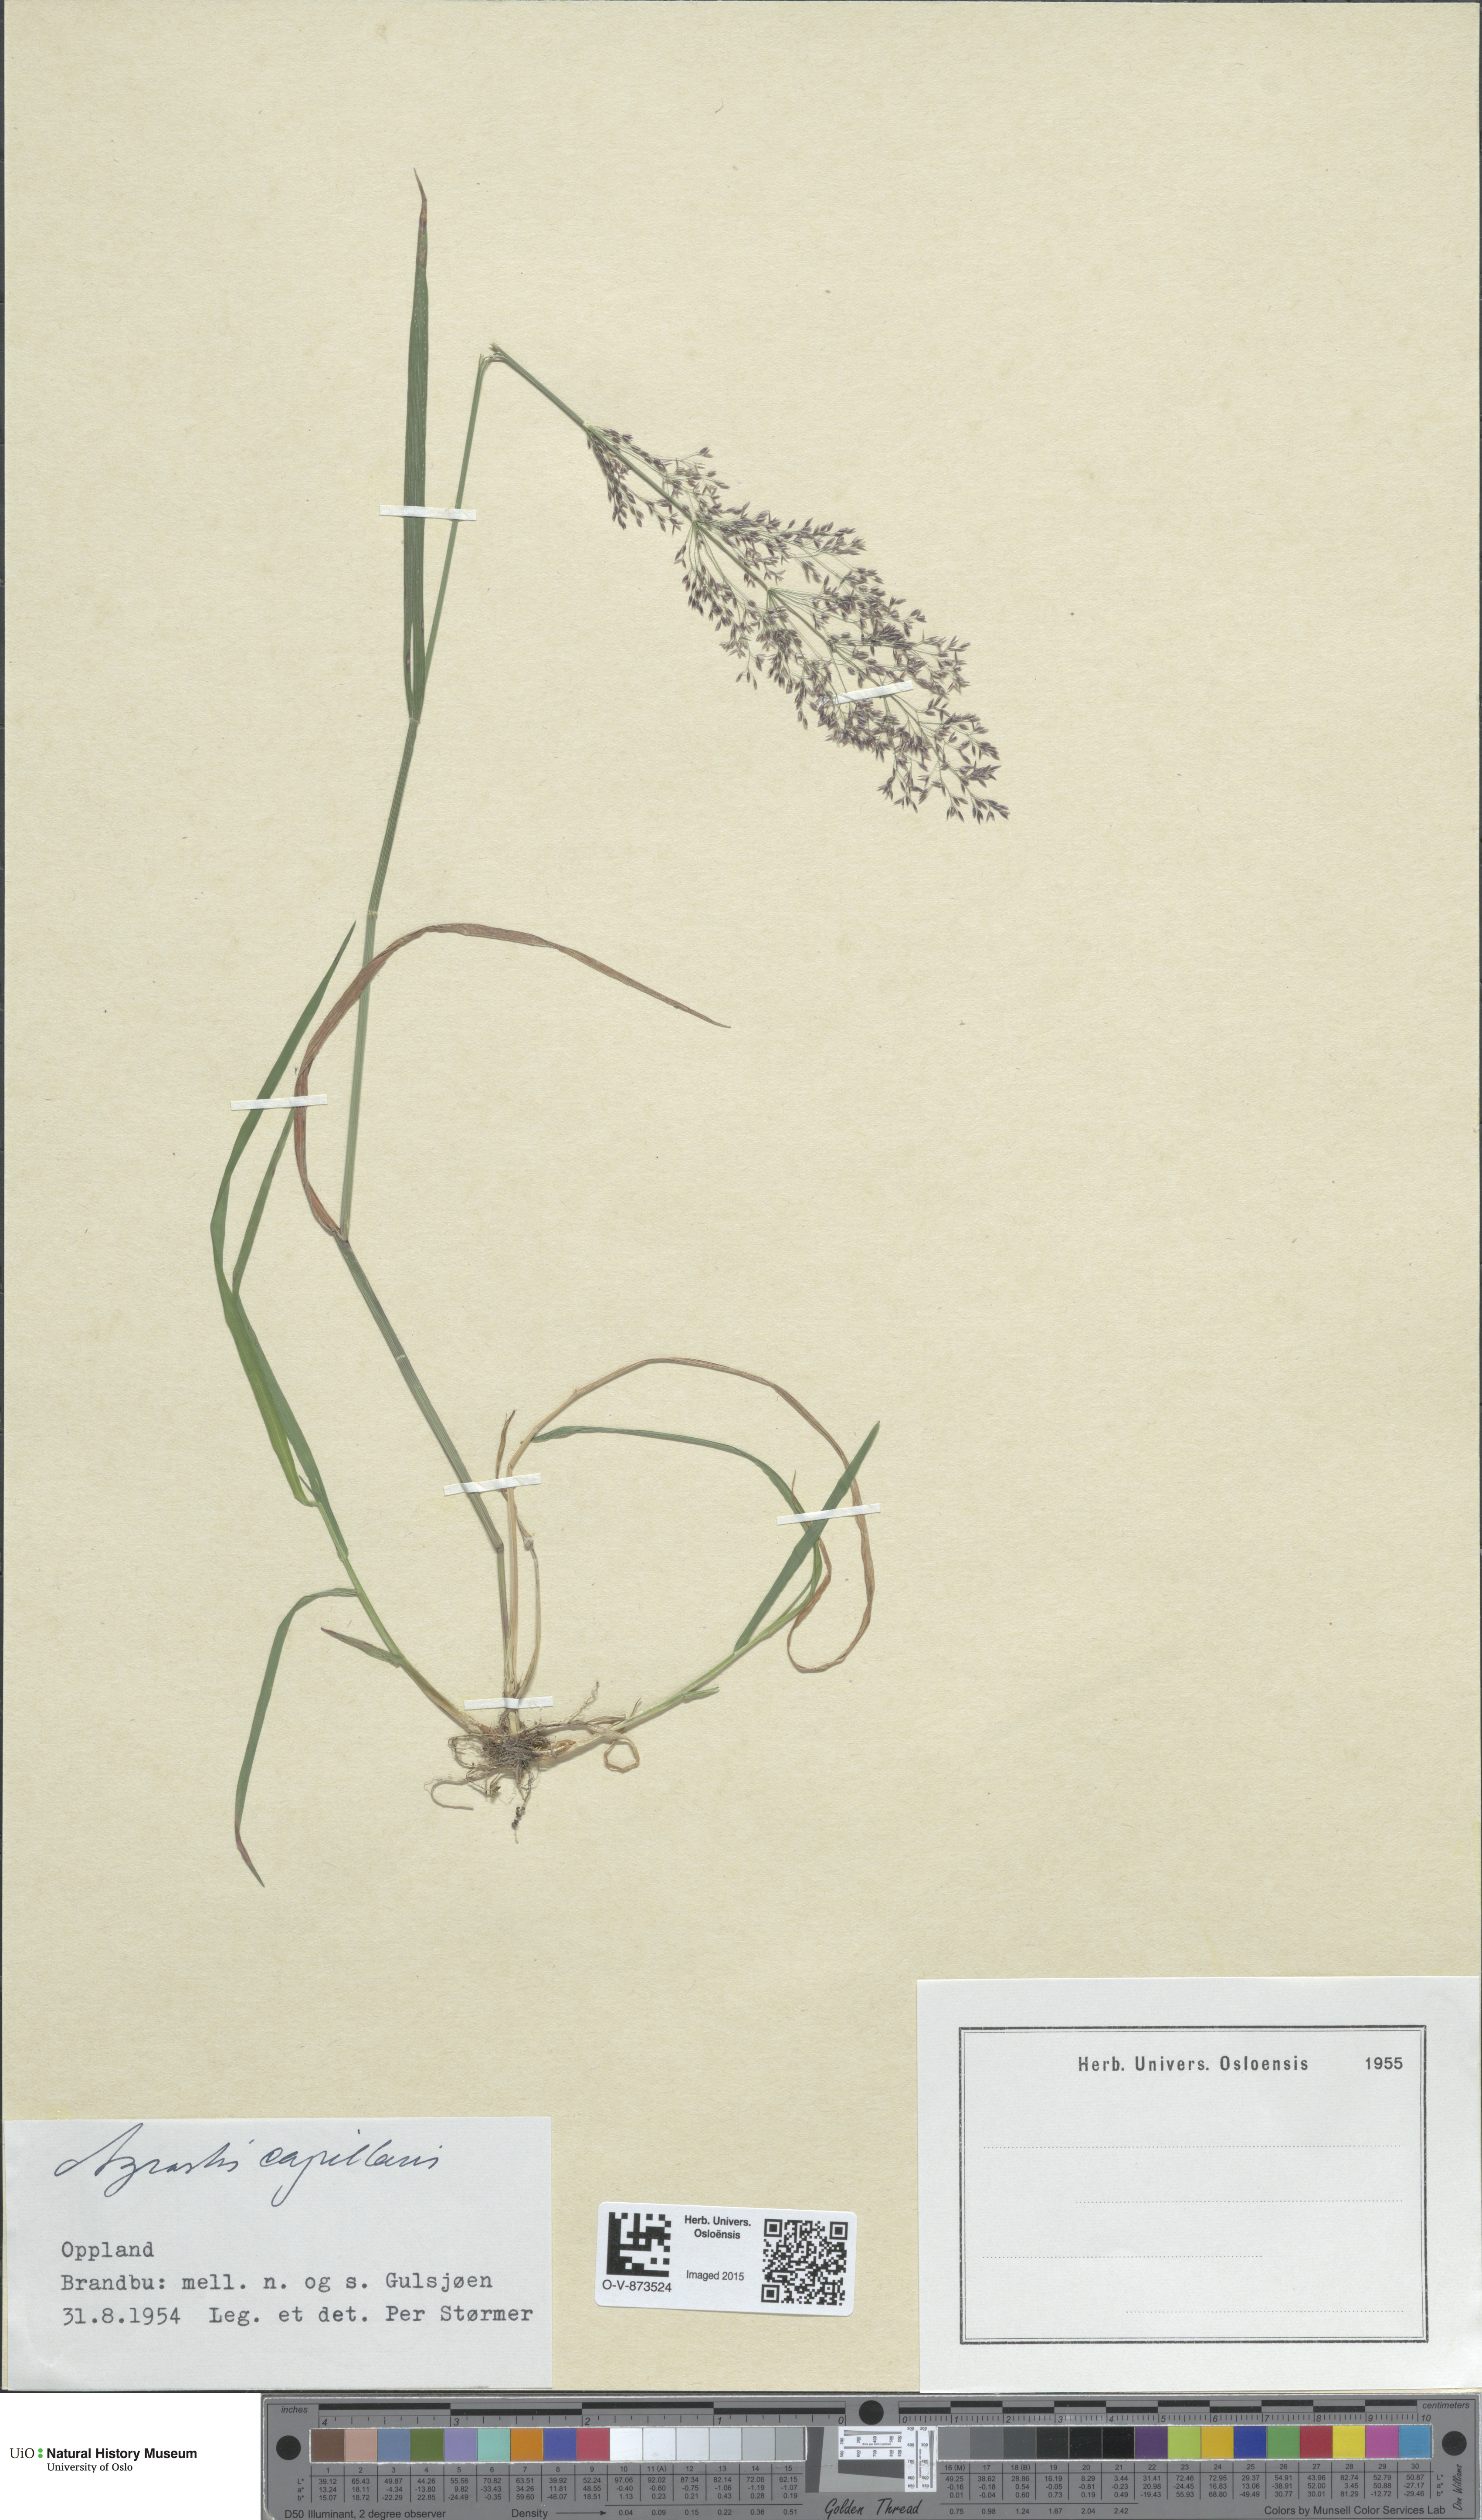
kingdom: Plantae
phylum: Tracheophyta
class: Liliopsida
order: Poales
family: Poaceae
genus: Agrostis
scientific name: Agrostis capillaris
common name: Colonial bentgrass
